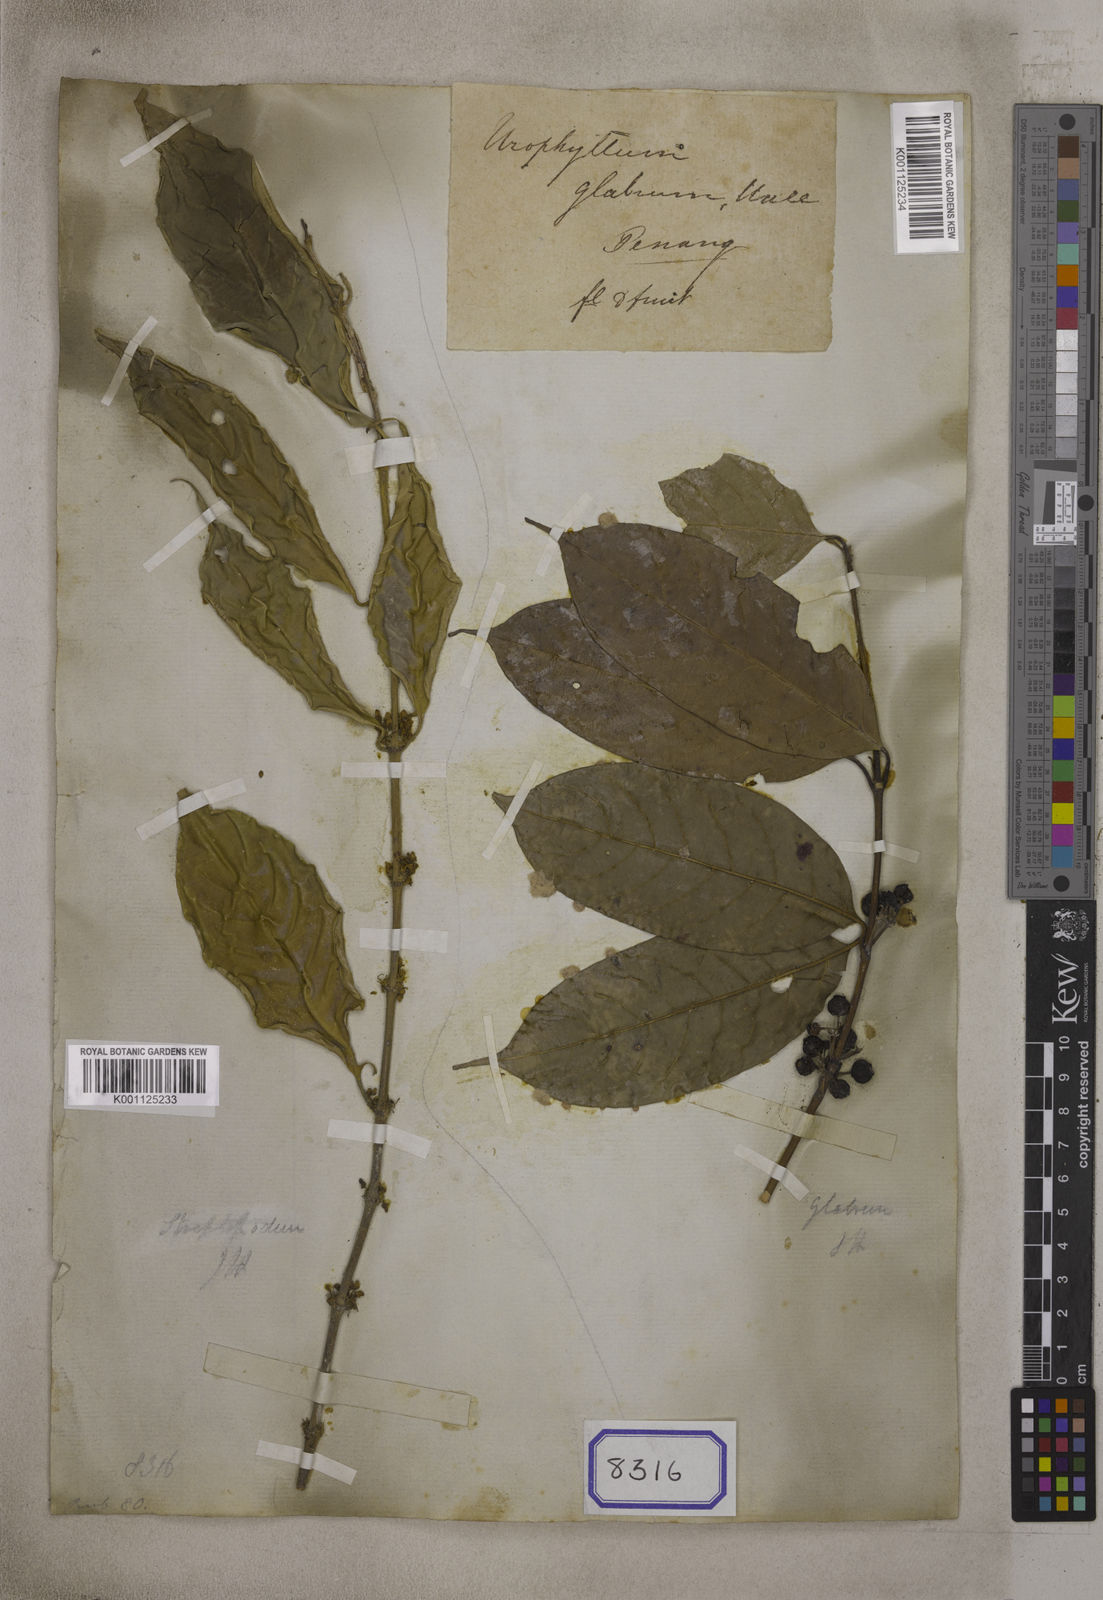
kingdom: Plantae
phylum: Tracheophyta
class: Magnoliopsida
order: Gentianales
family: Rubiaceae
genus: Urophyllum
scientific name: Urophyllum glabrum
